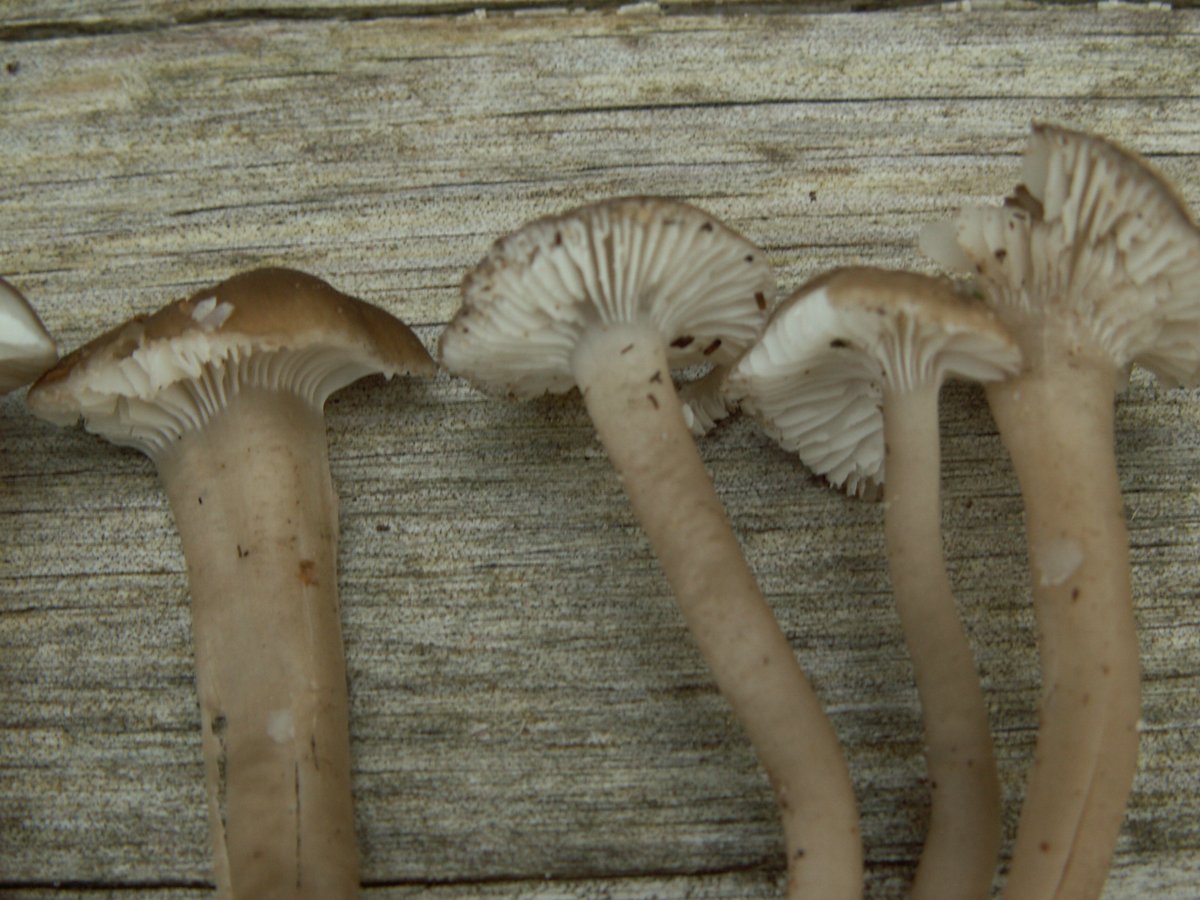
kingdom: Fungi
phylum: Basidiomycota
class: Agaricomycetes
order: Agaricales
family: Clavariaceae
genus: Camarophyllopsis
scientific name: Camarophyllopsis atrovelutina
